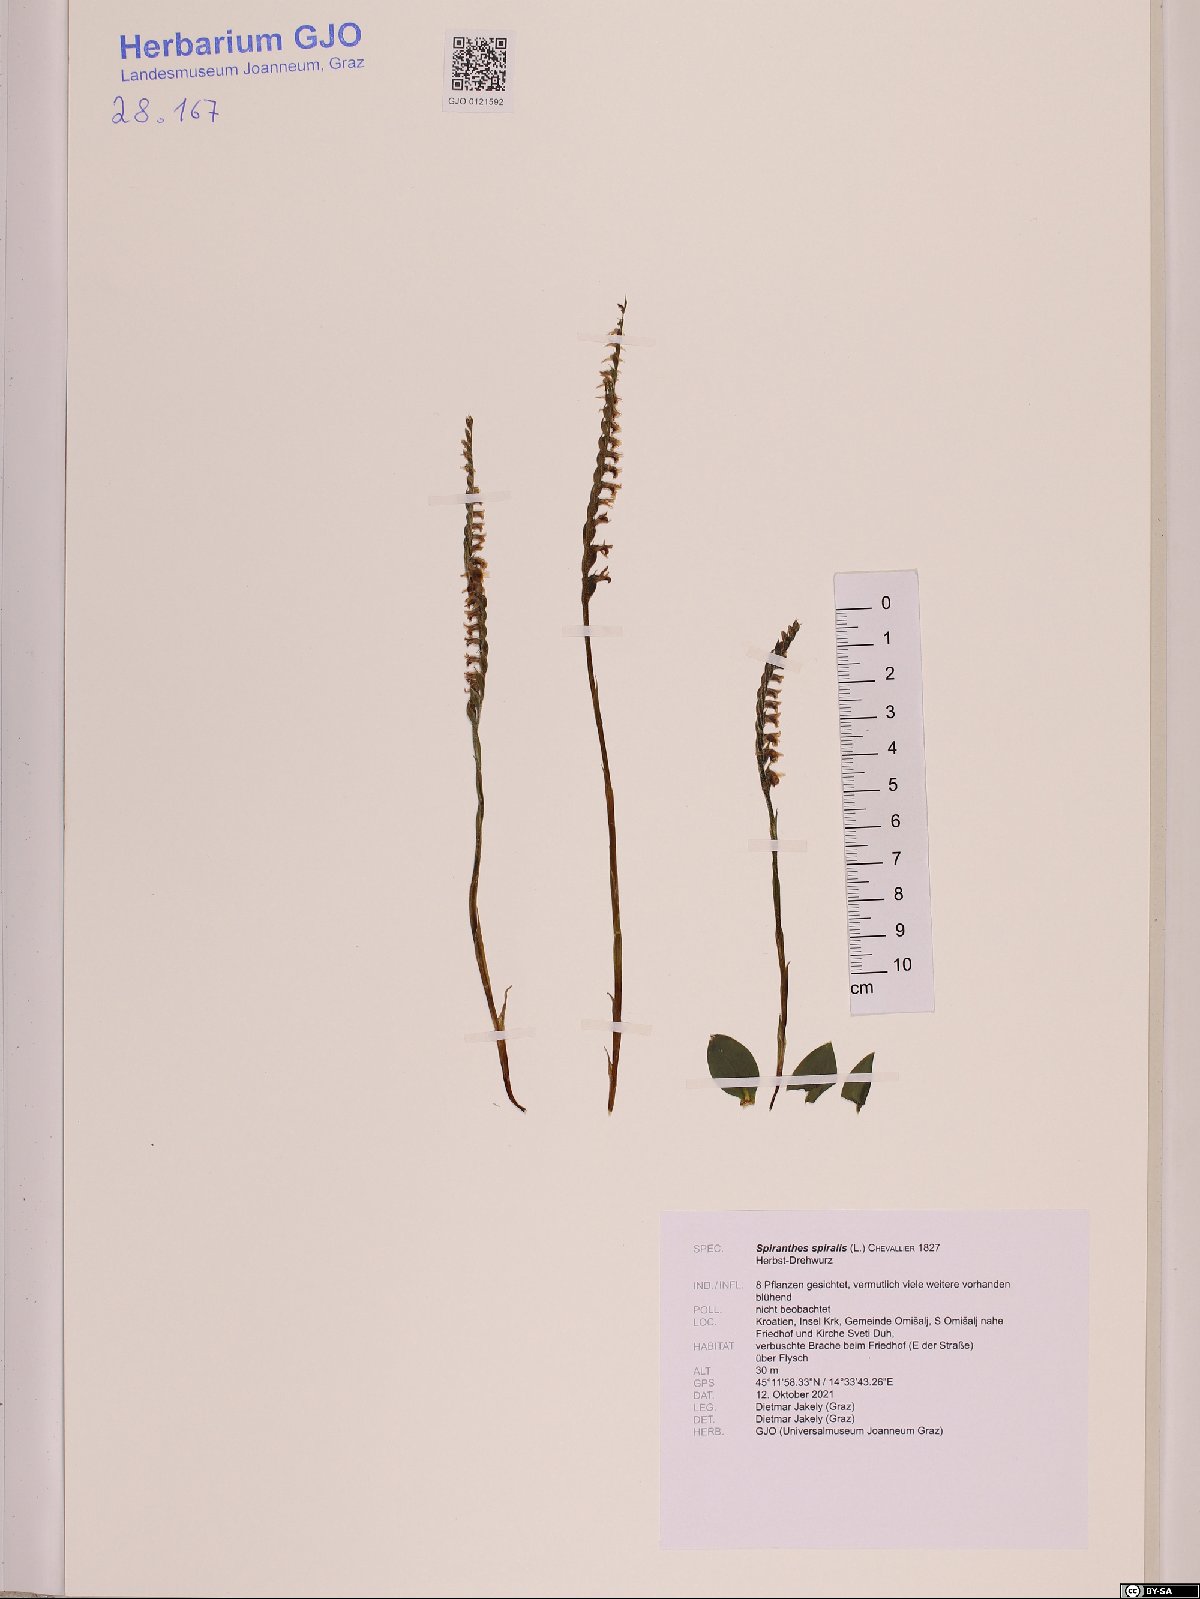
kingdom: Plantae
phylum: Tracheophyta
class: Liliopsida
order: Asparagales
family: Orchidaceae
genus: Spiranthes
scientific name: Spiranthes spiralis
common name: Autumn lady's-tresses
